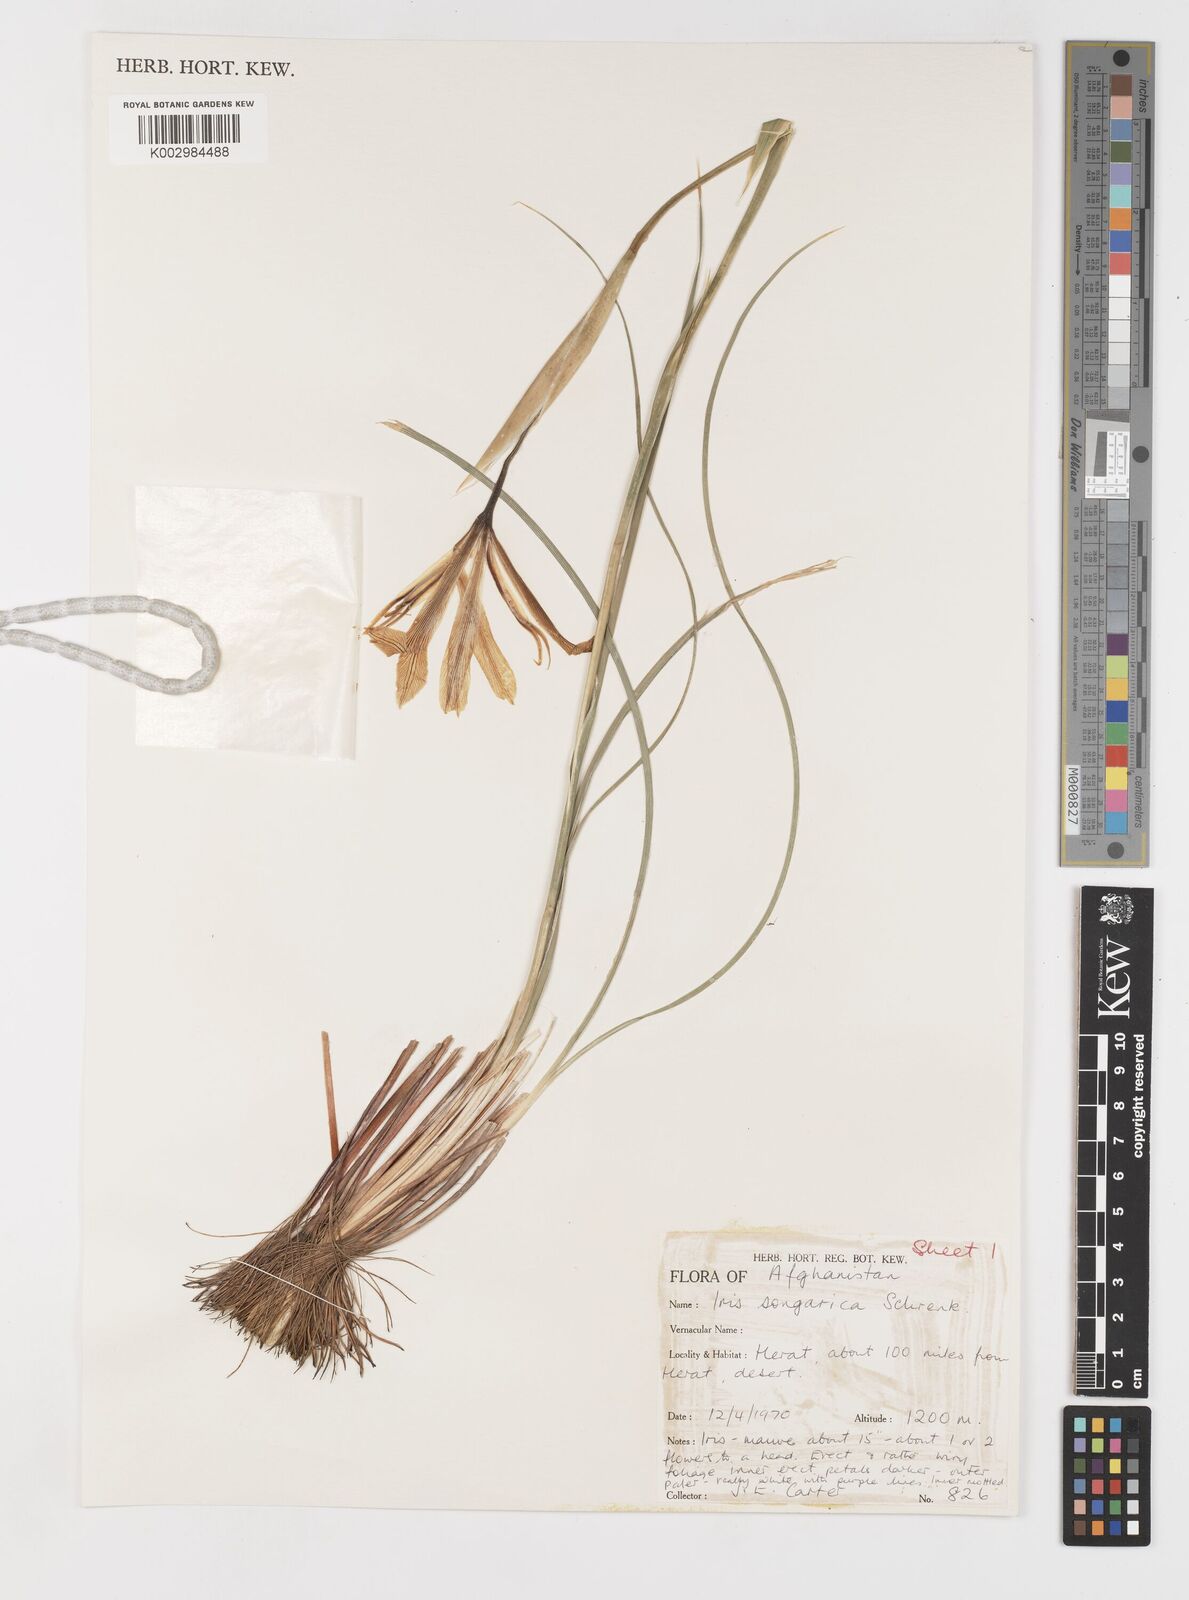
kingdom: Plantae
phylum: Tracheophyta
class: Liliopsida
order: Asparagales
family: Iridaceae
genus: Iris
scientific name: Iris songarica
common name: Songar iris
